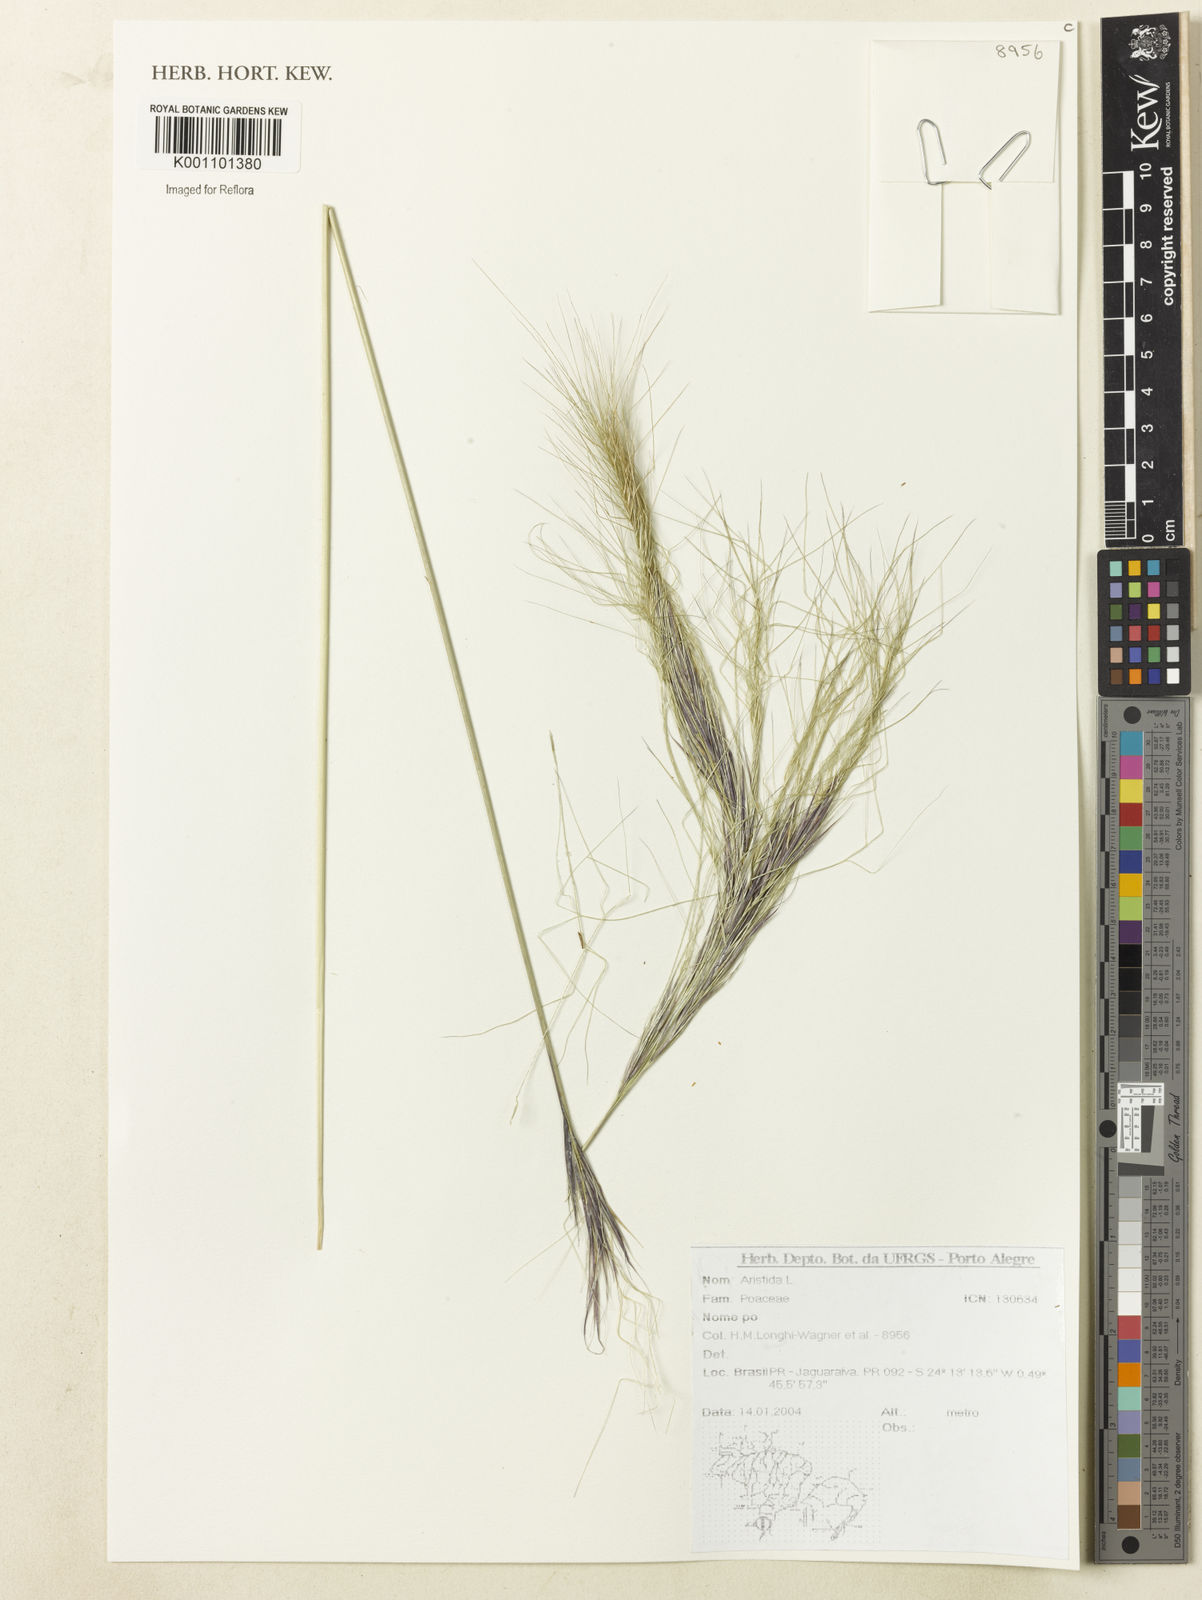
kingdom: Plantae
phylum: Tracheophyta
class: Liliopsida
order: Poales
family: Poaceae
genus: Aristida
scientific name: Aristida
